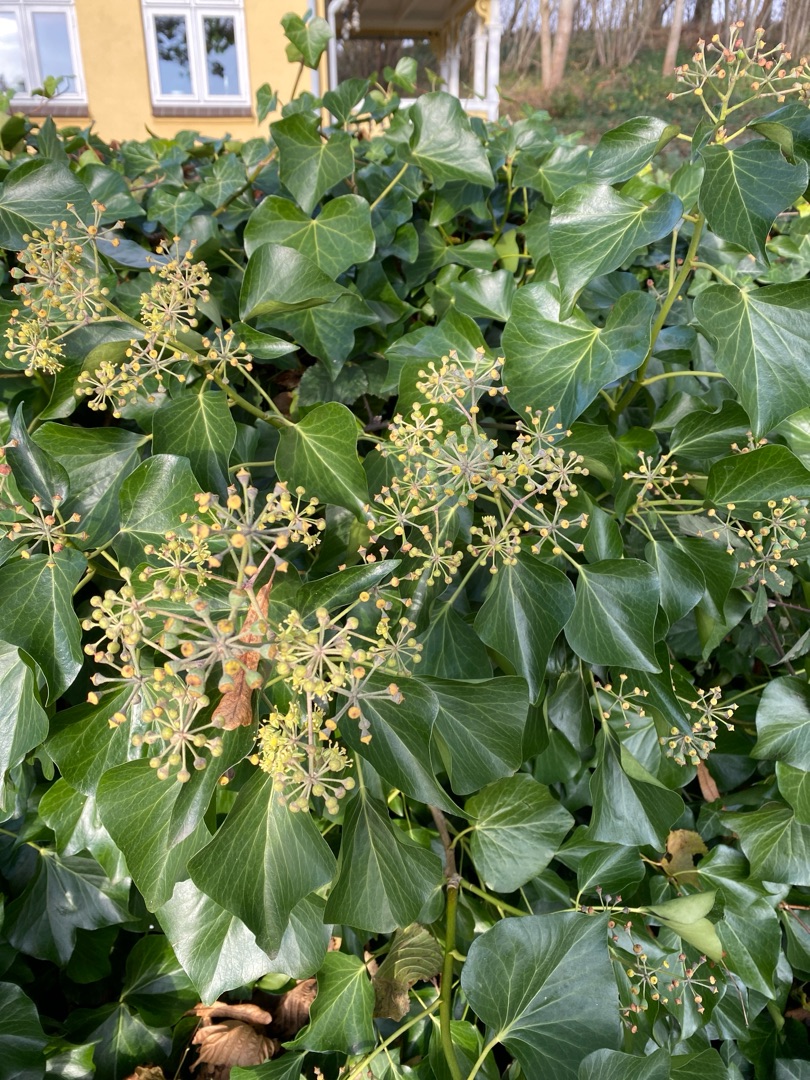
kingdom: Plantae
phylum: Tracheophyta
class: Magnoliopsida
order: Apiales
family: Araliaceae
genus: Hedera
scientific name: Hedera helix
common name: Vedbend
